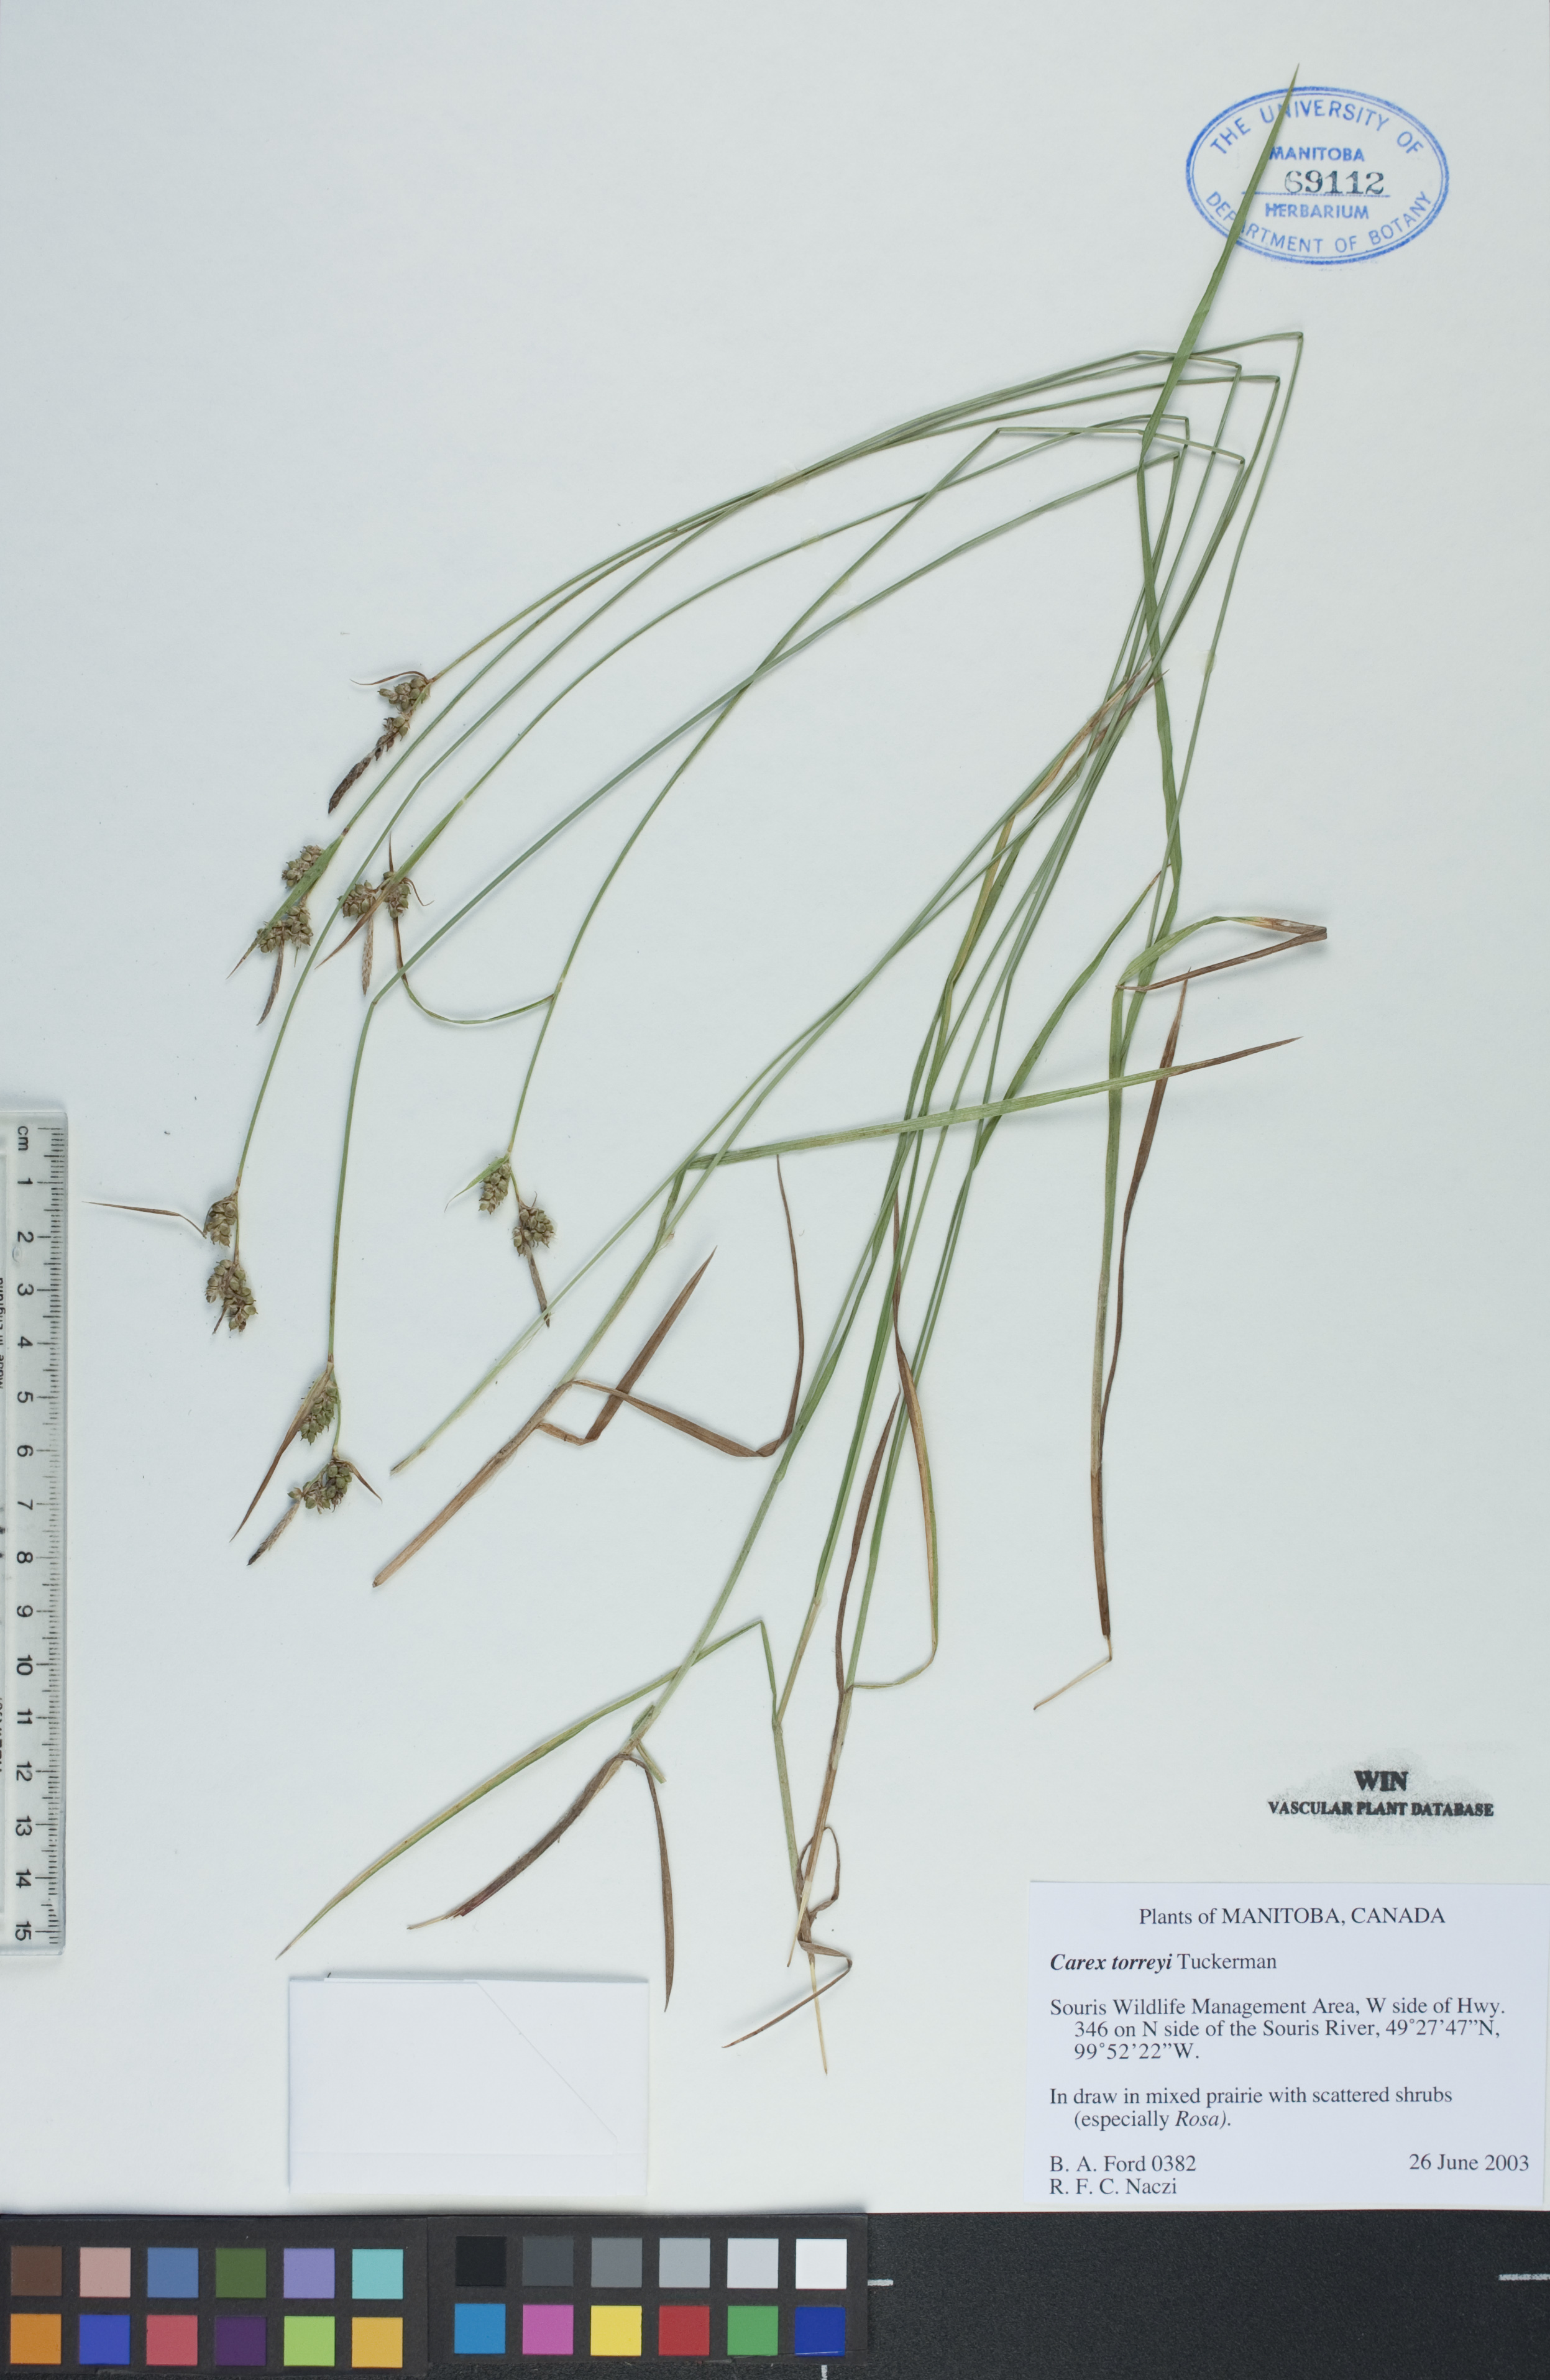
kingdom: Plantae
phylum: Tracheophyta
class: Liliopsida
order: Poales
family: Cyperaceae
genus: Carex
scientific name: Carex torreyi
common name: Torrey's sedge
